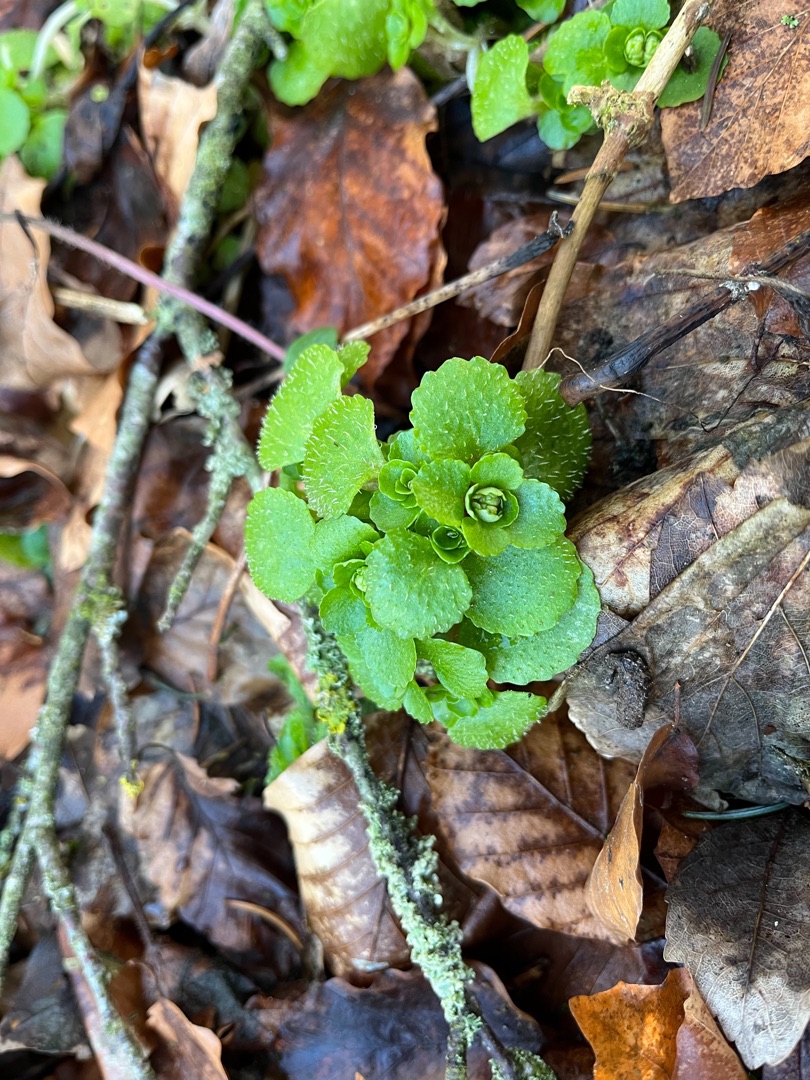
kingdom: Plantae
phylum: Tracheophyta
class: Magnoliopsida
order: Saxifragales
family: Saxifragaceae
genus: Chrysosplenium
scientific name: Chrysosplenium oppositifolium
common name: Småbladet milturt
